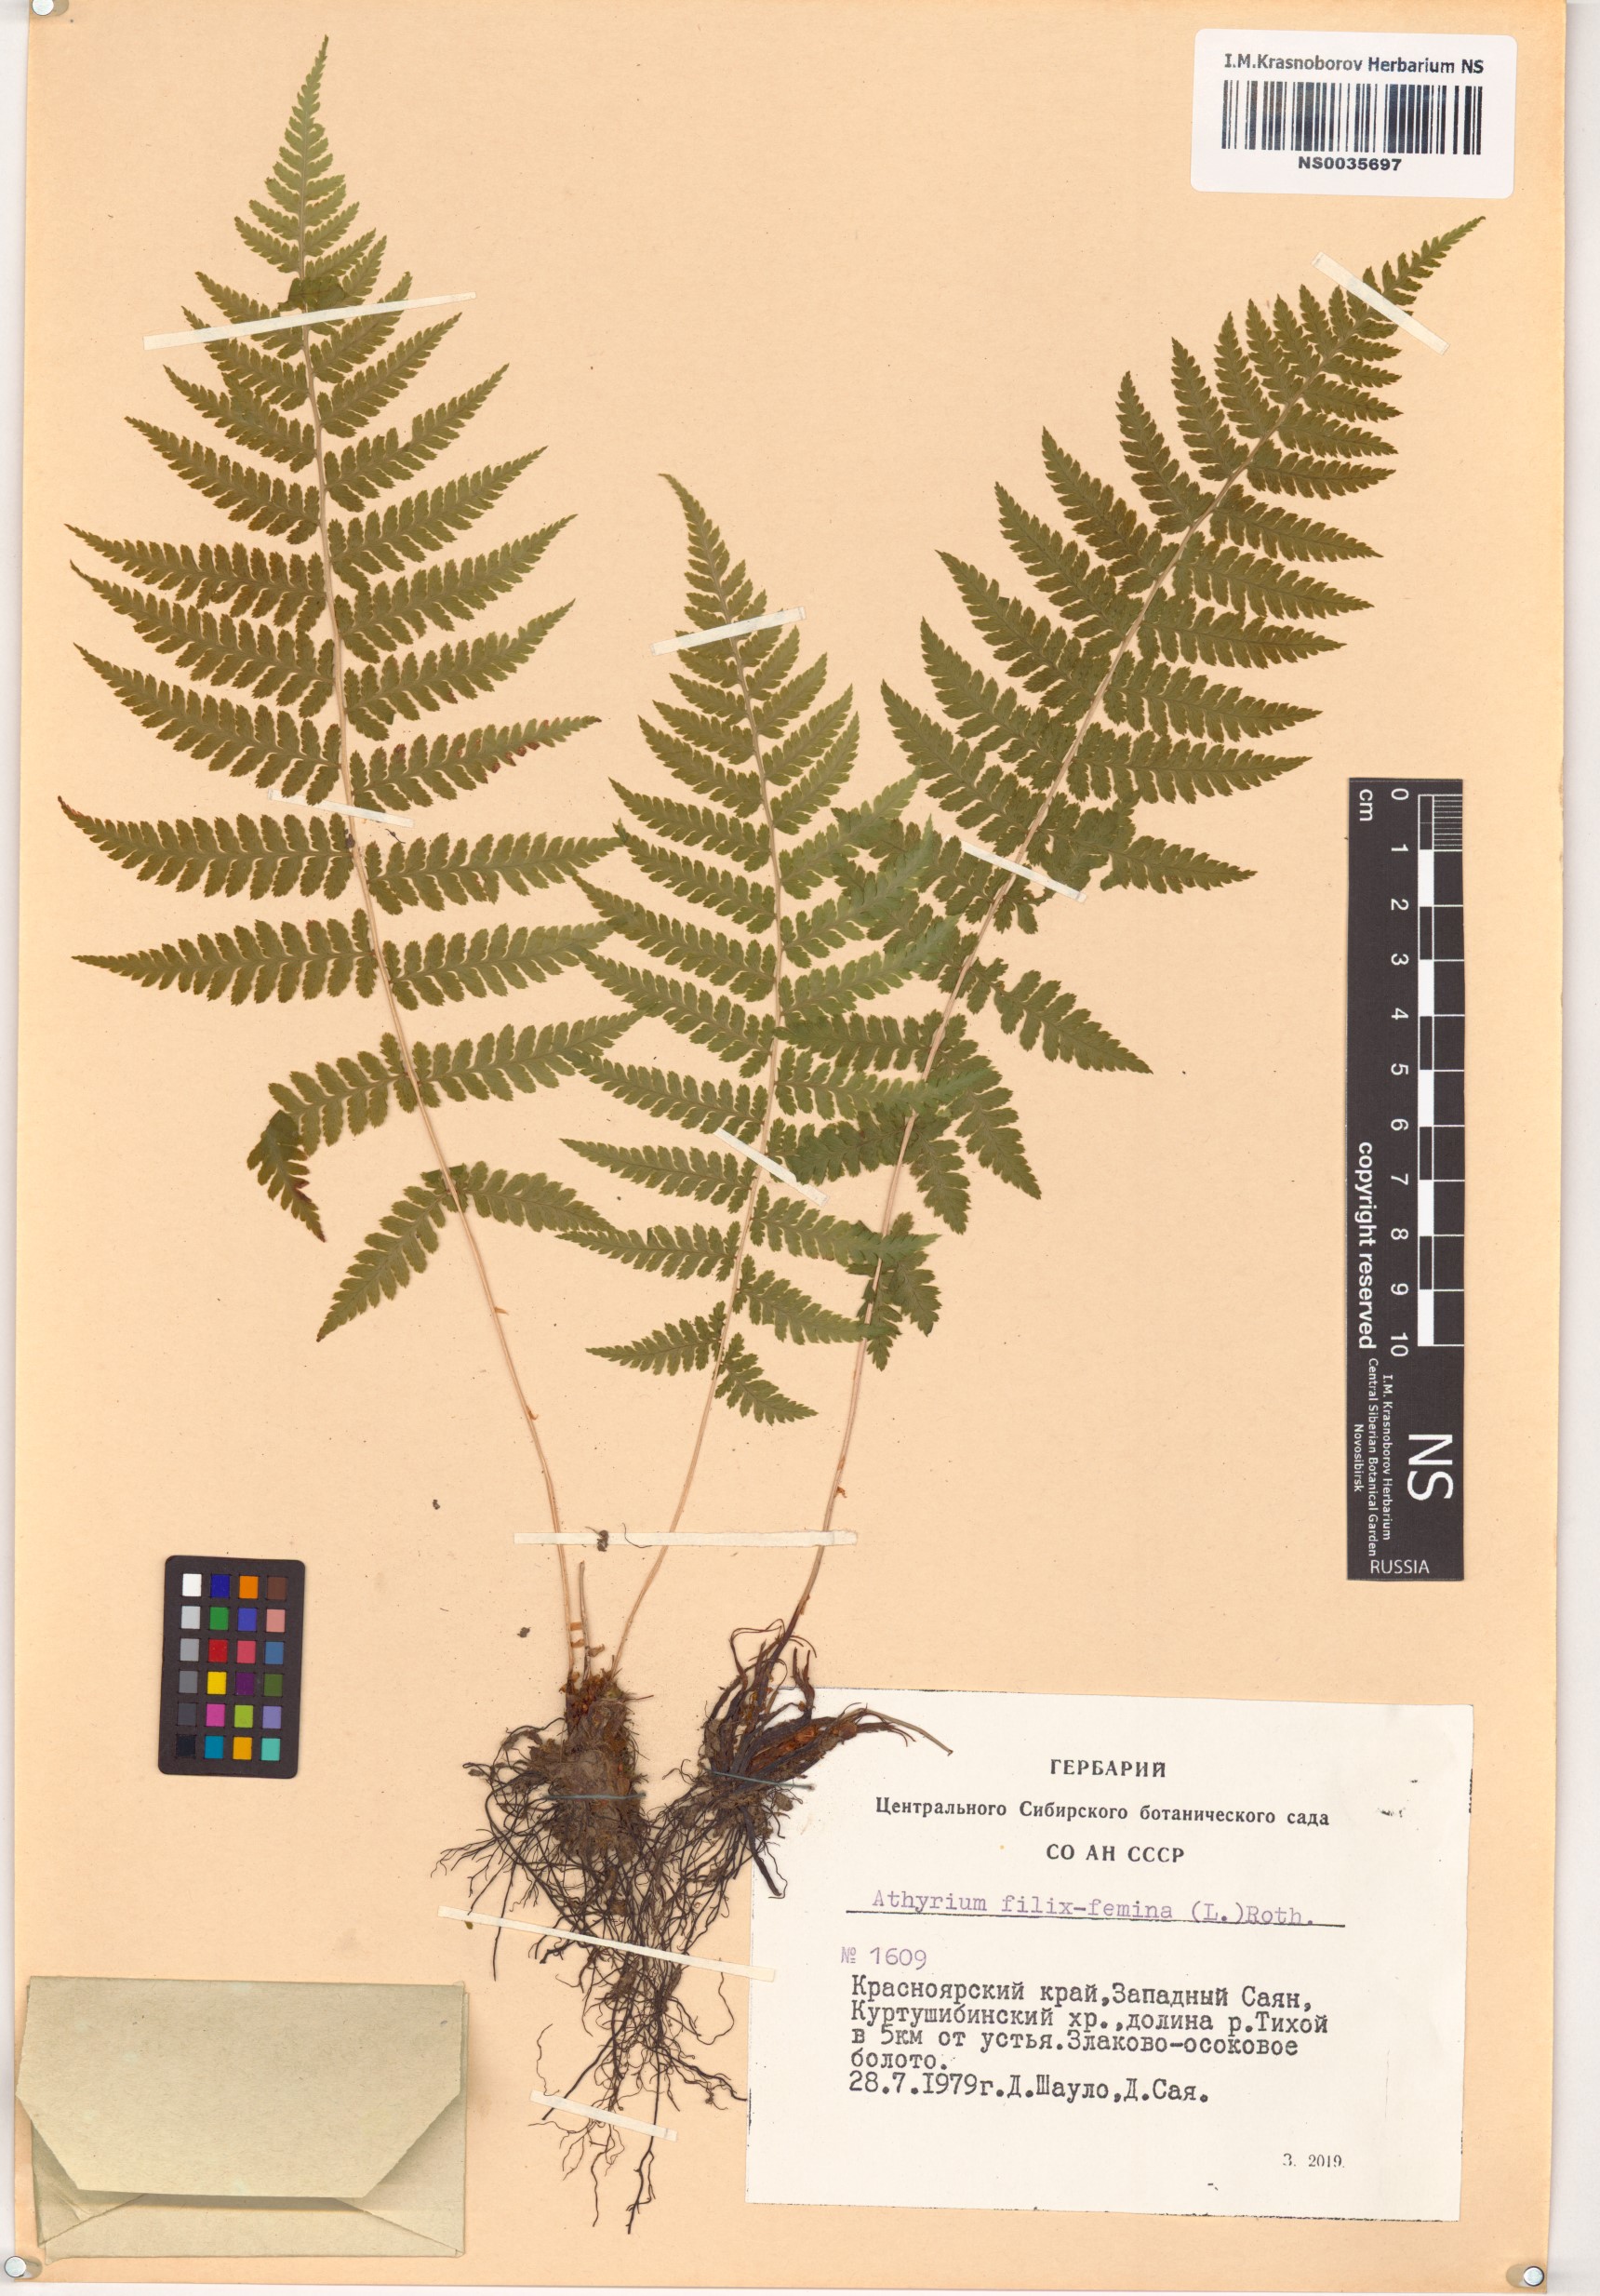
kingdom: Plantae
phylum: Tracheophyta
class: Polypodiopsida
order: Polypodiales
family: Athyriaceae
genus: Athyrium
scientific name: Athyrium filix-femina
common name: Lady fern
